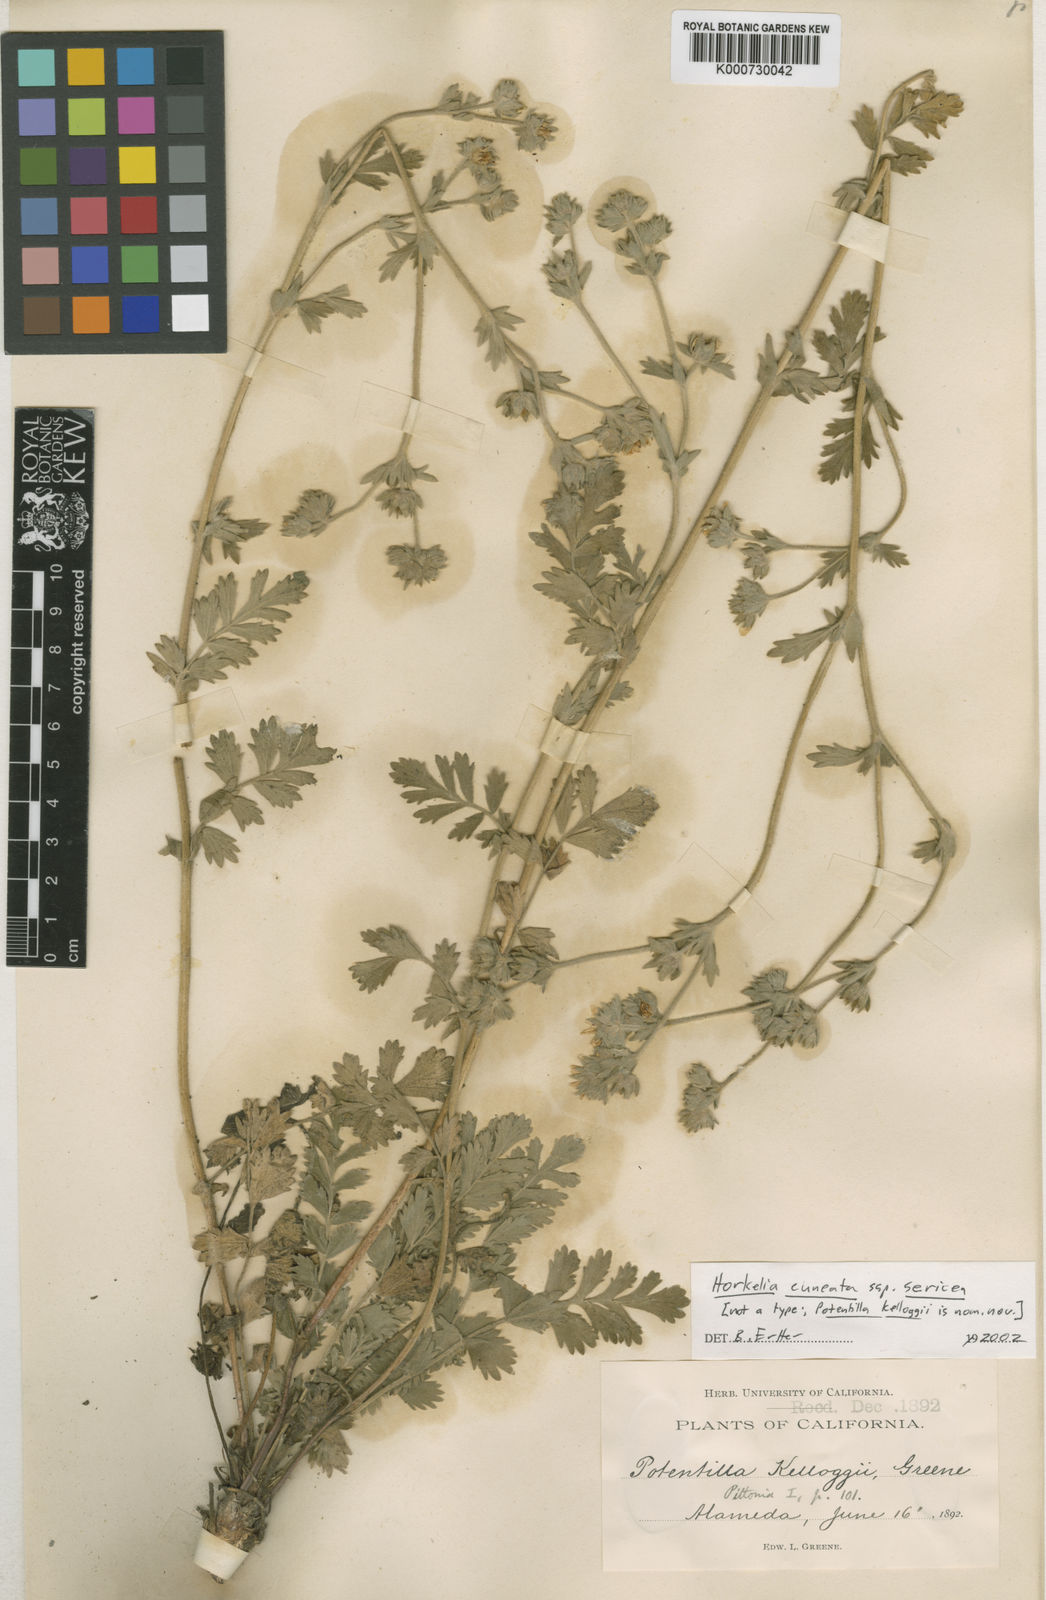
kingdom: Plantae
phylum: Tracheophyta
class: Magnoliopsida
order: Rosales
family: Rosaceae
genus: Potentilla
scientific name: Potentilla lindleyi
